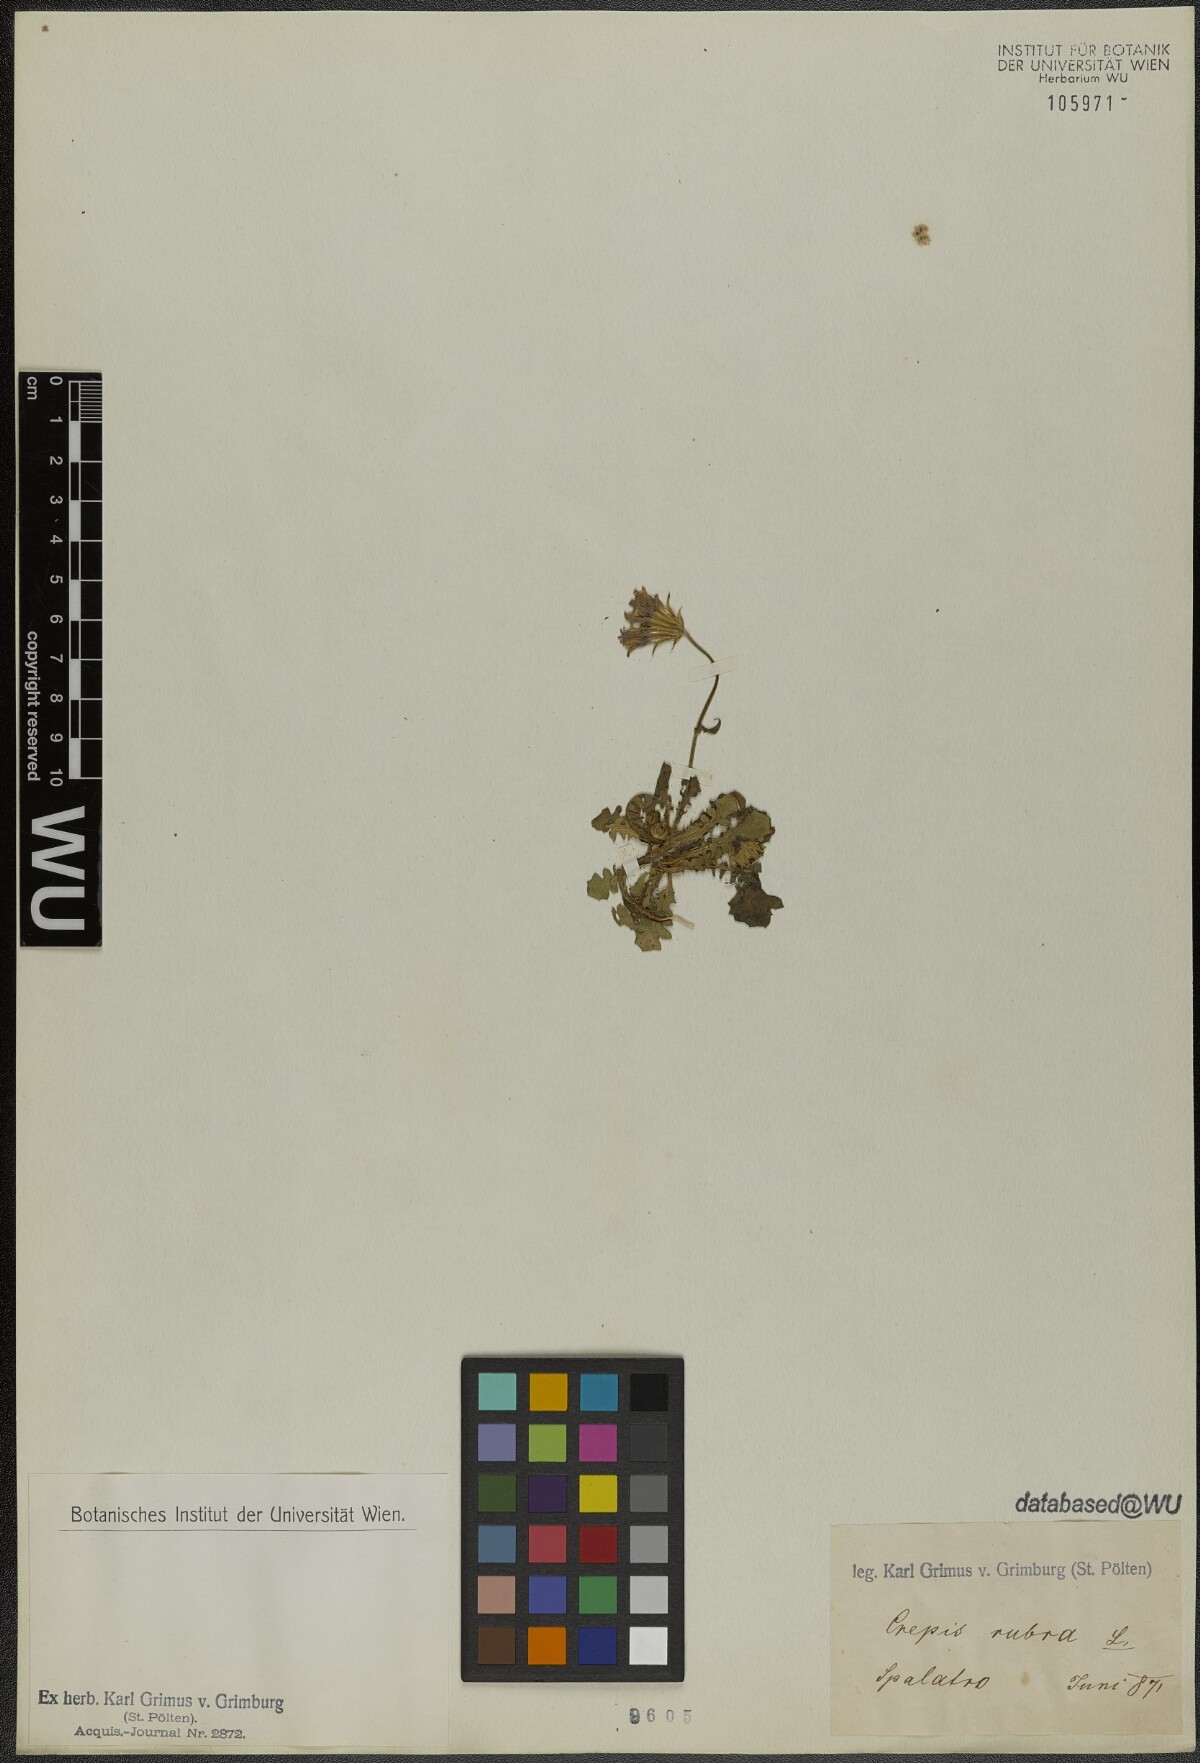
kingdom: Plantae
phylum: Tracheophyta
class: Magnoliopsida
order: Asterales
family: Asteraceae
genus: Crepis
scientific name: Crepis rubra
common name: Pink hawk's-beard
